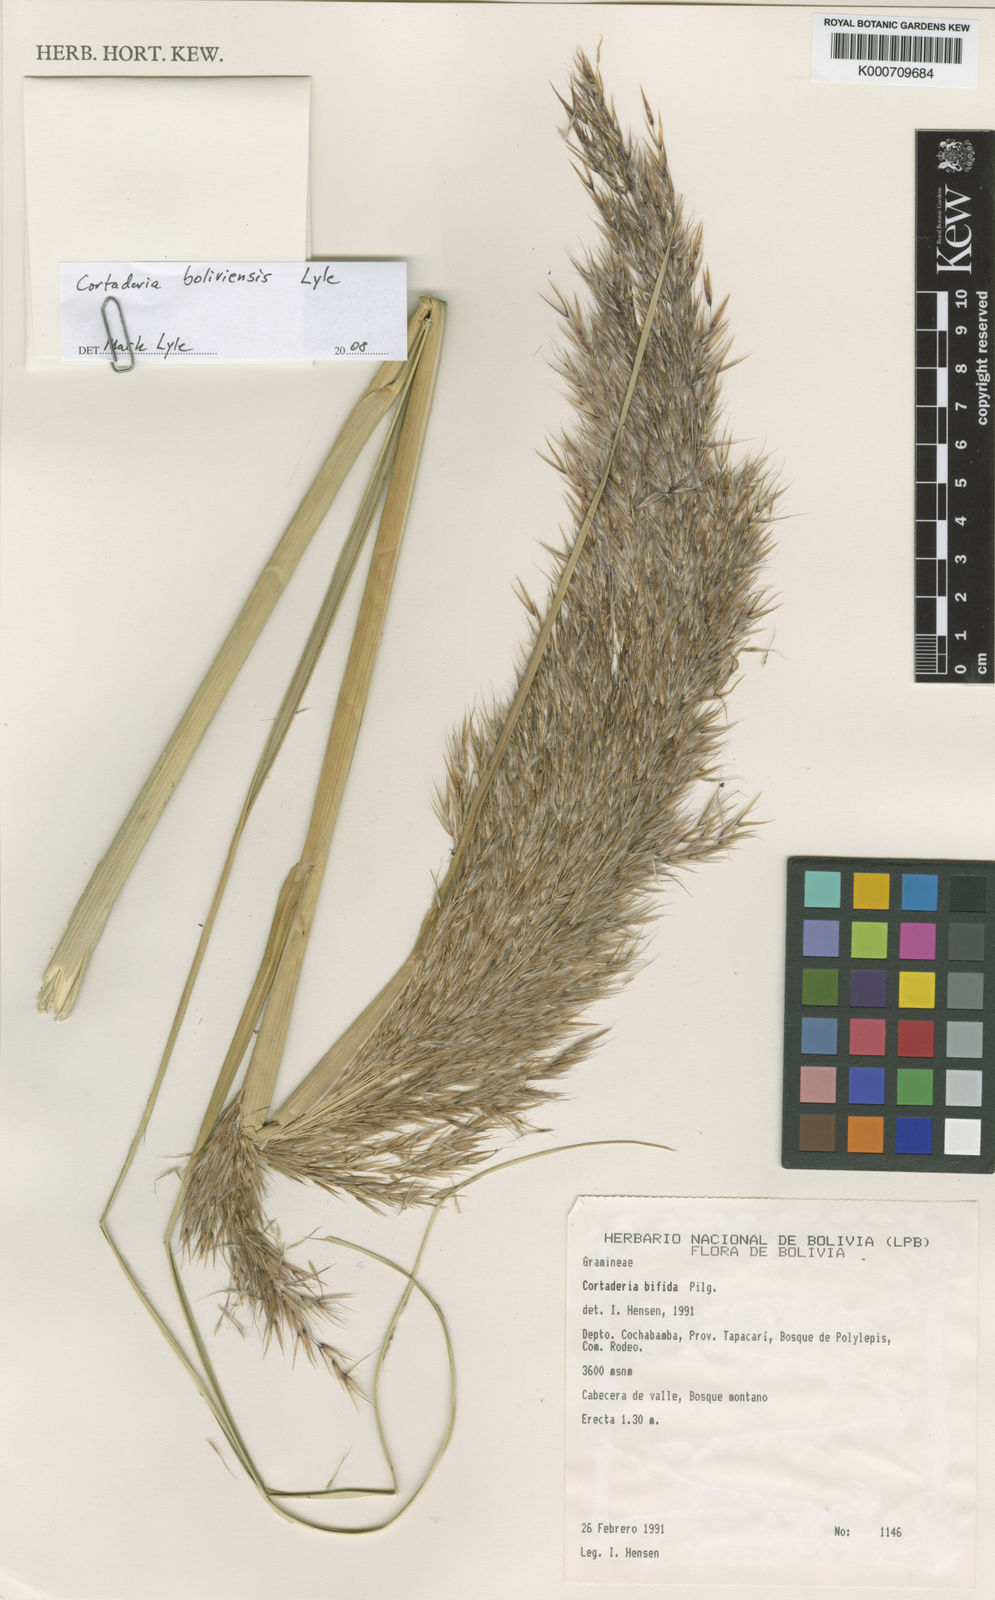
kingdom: Plantae
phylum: Tracheophyta
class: Liliopsida
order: Poales
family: Poaceae
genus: Cortaderia
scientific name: Cortaderia boliviensis
